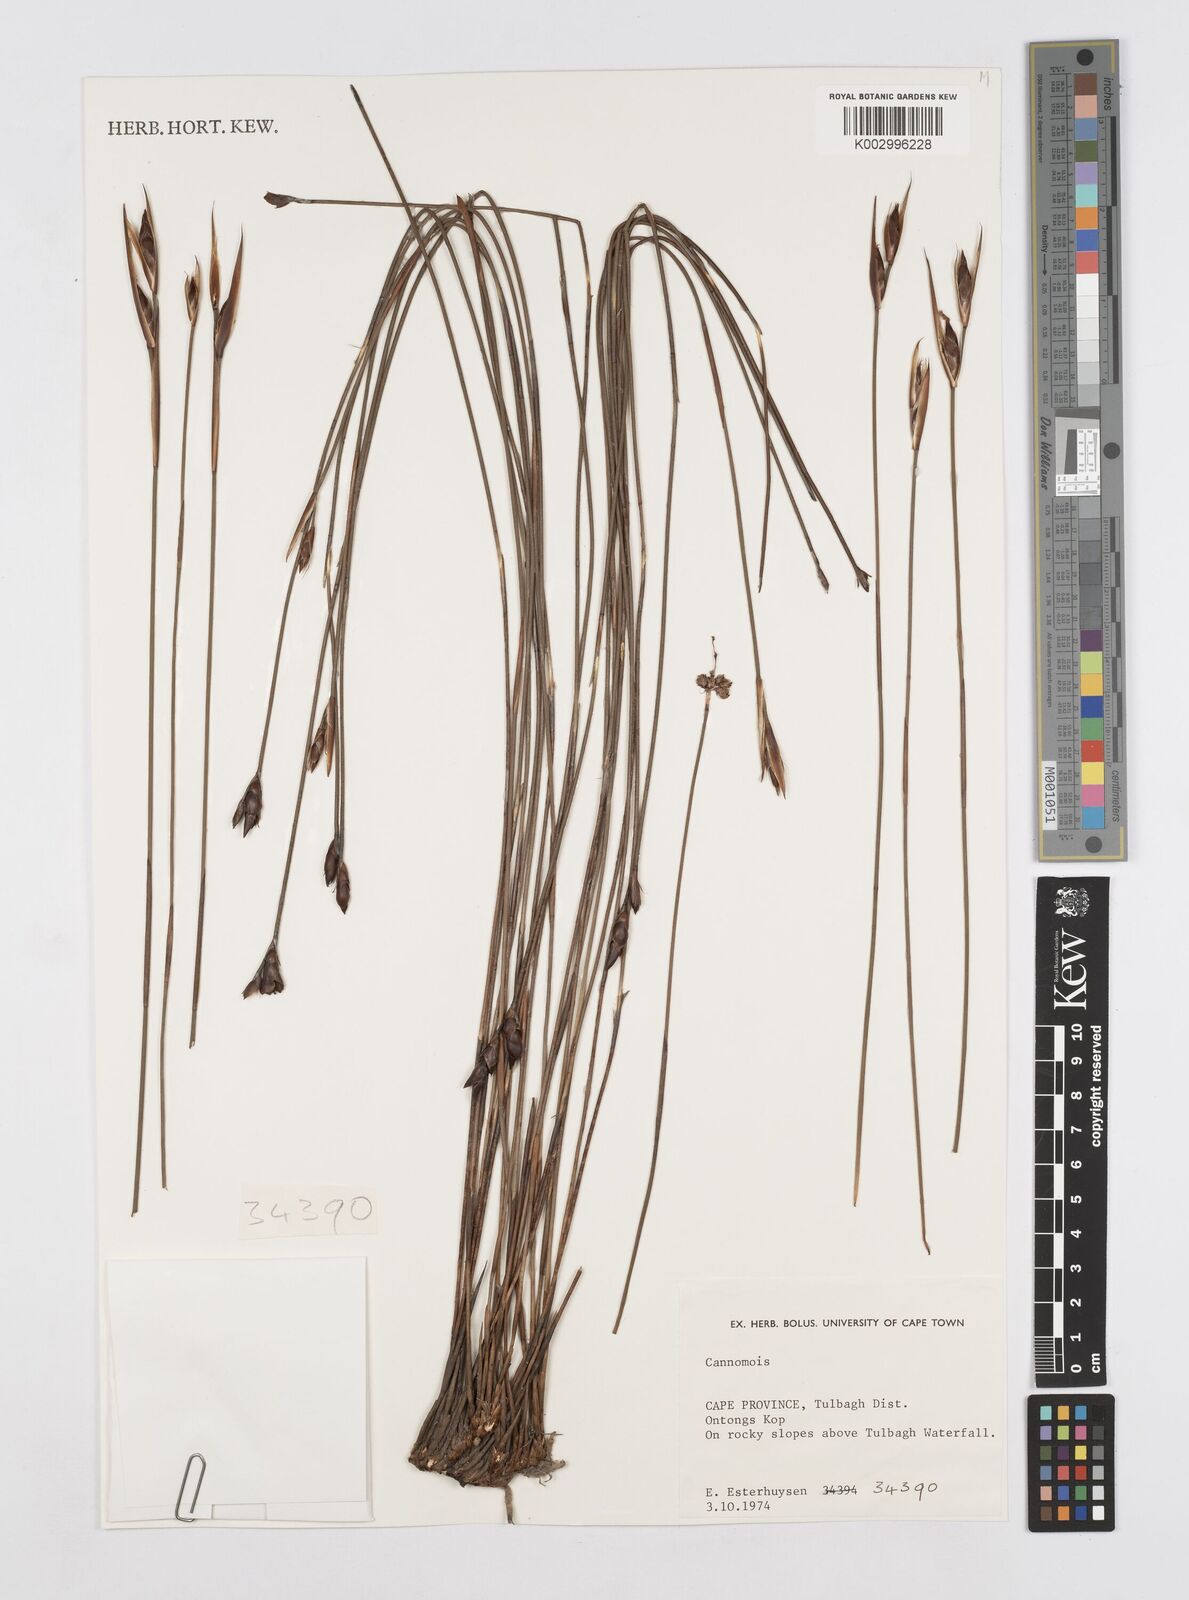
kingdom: Plantae
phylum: Tracheophyta
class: Liliopsida
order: Poales
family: Restionaceae
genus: Cannomois
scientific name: Cannomois
